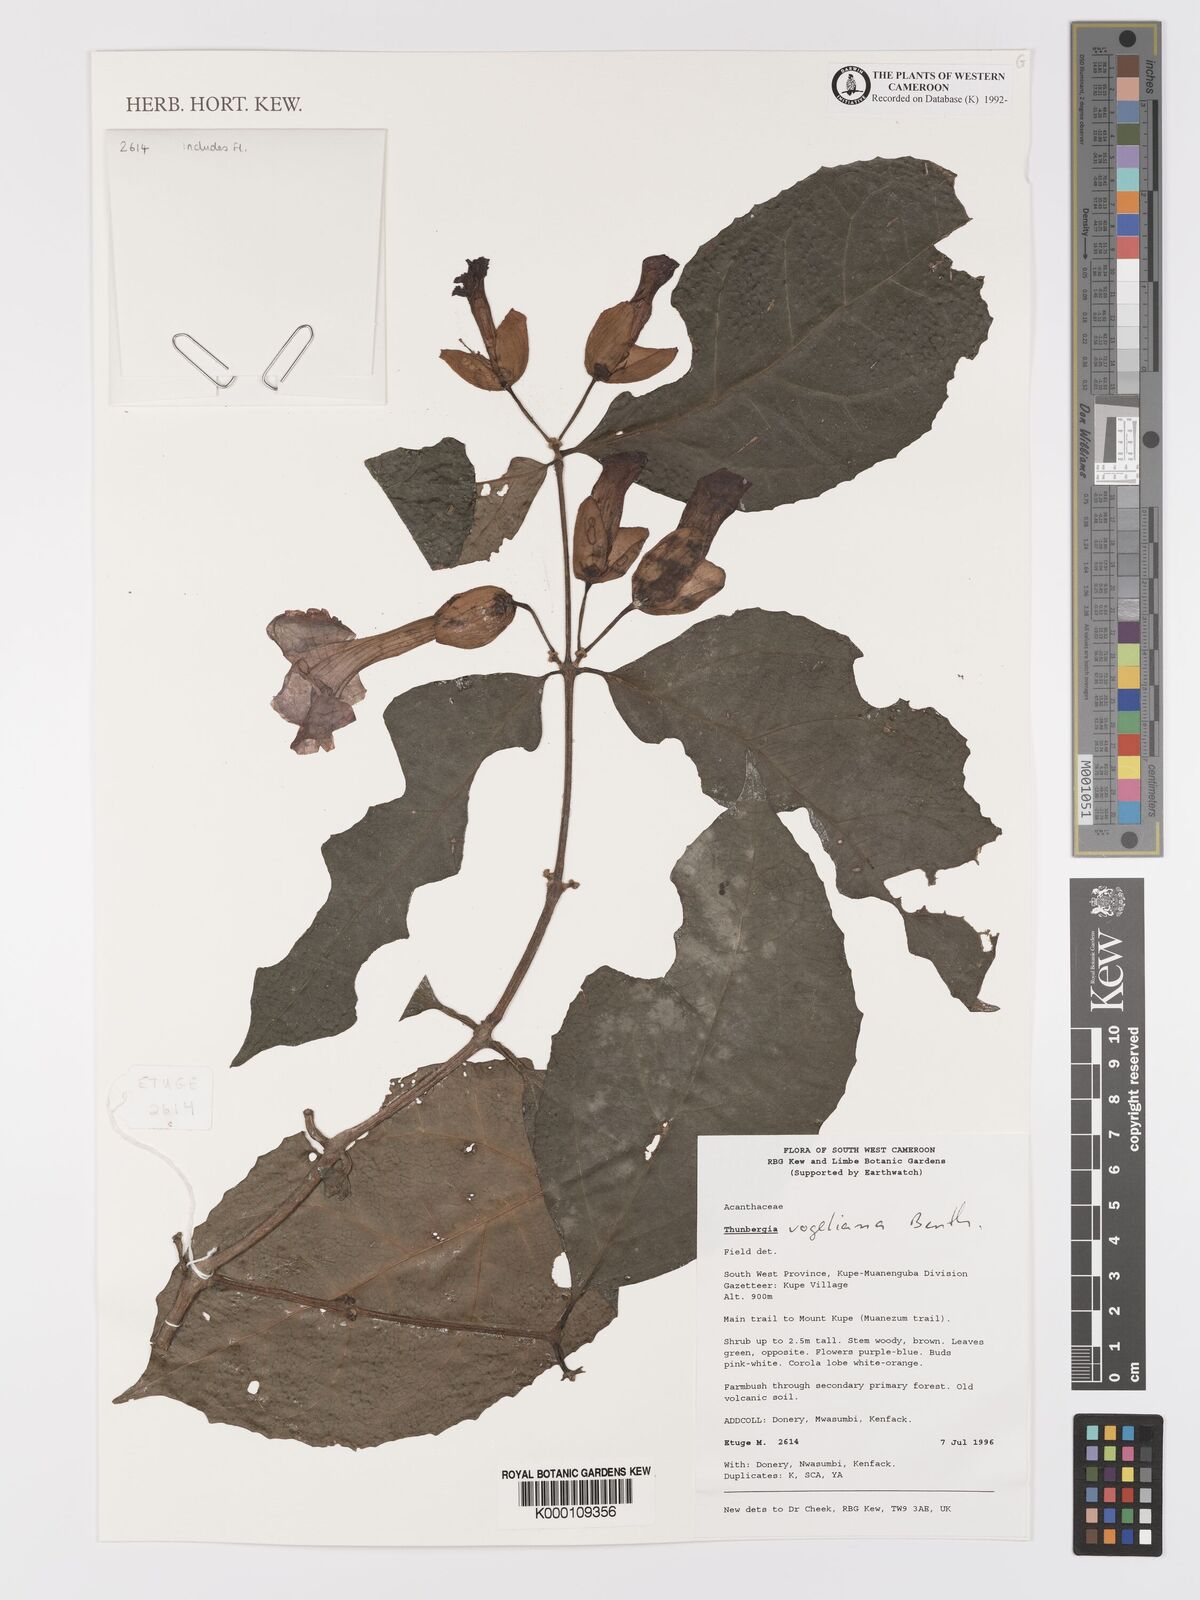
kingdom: Plantae
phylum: Tracheophyta
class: Magnoliopsida
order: Lamiales
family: Acanthaceae
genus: Thunbergia
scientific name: Thunbergia vogeliana
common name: Acanthaceae
